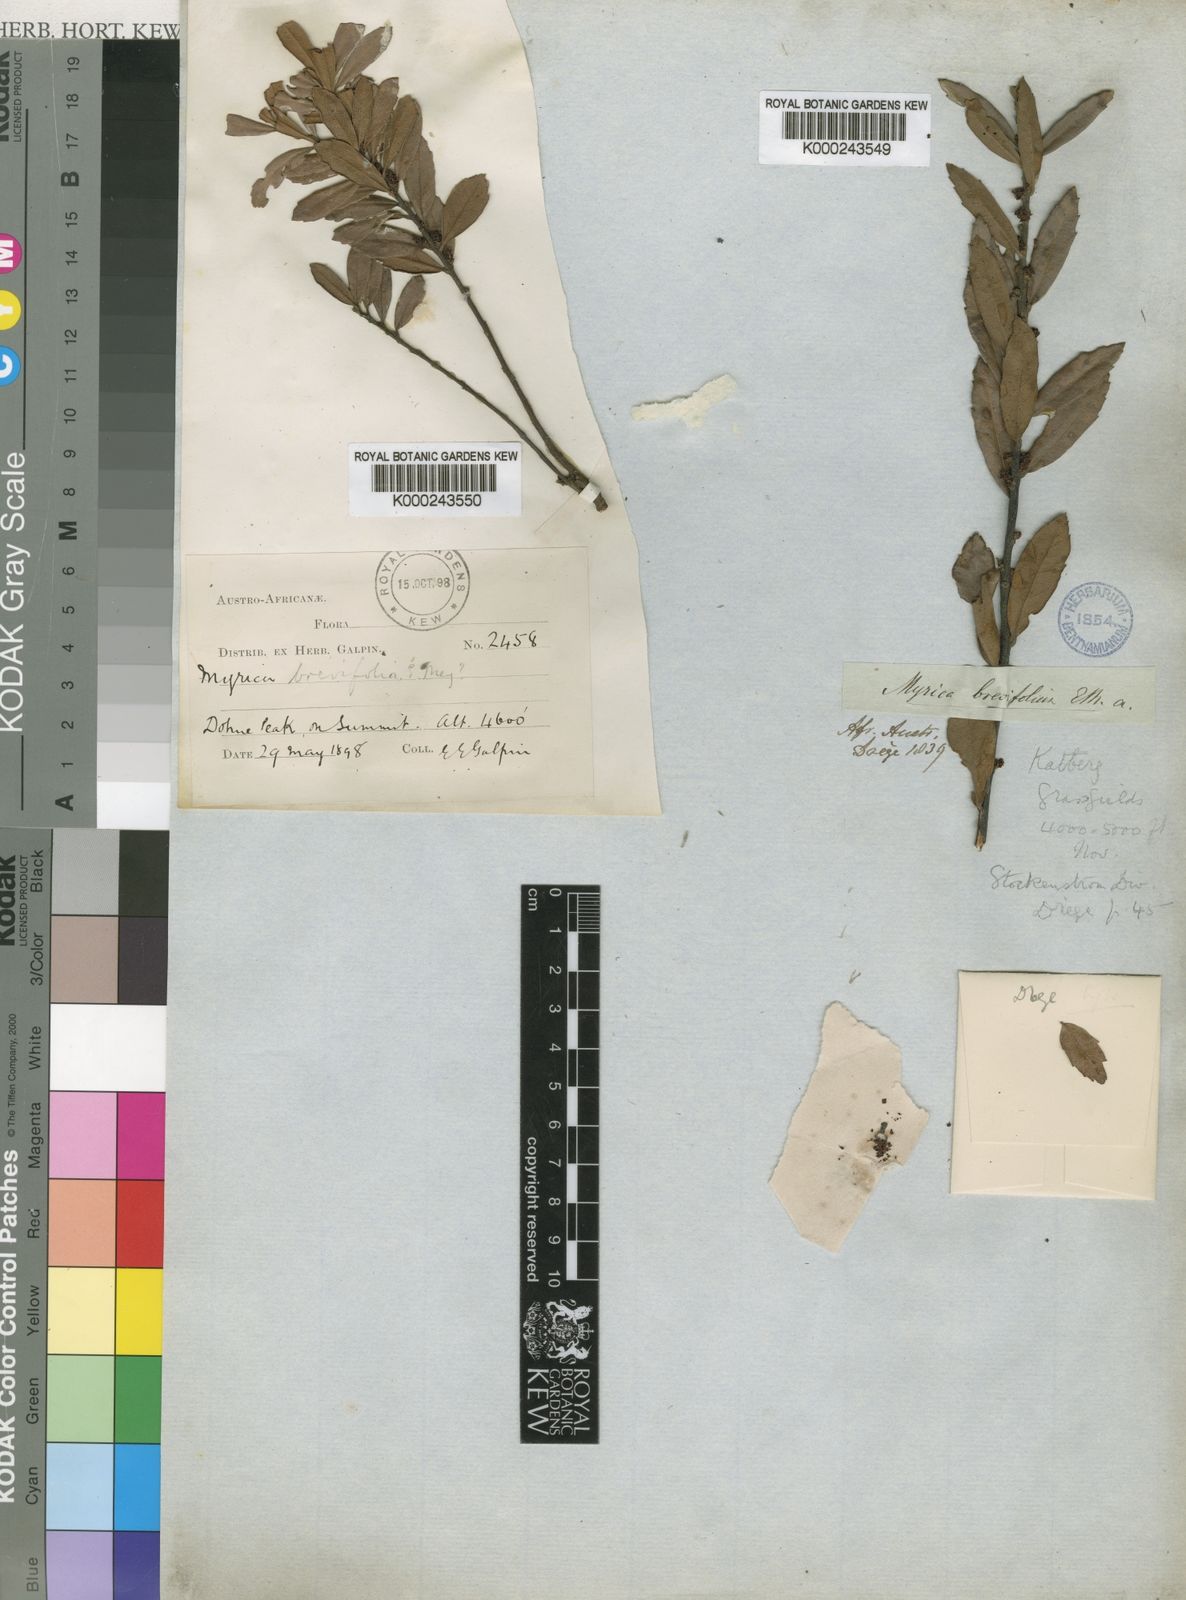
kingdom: Plantae
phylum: Tracheophyta
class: Magnoliopsida
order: Fagales
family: Myricaceae
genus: Morella
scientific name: Morella brevifolia
